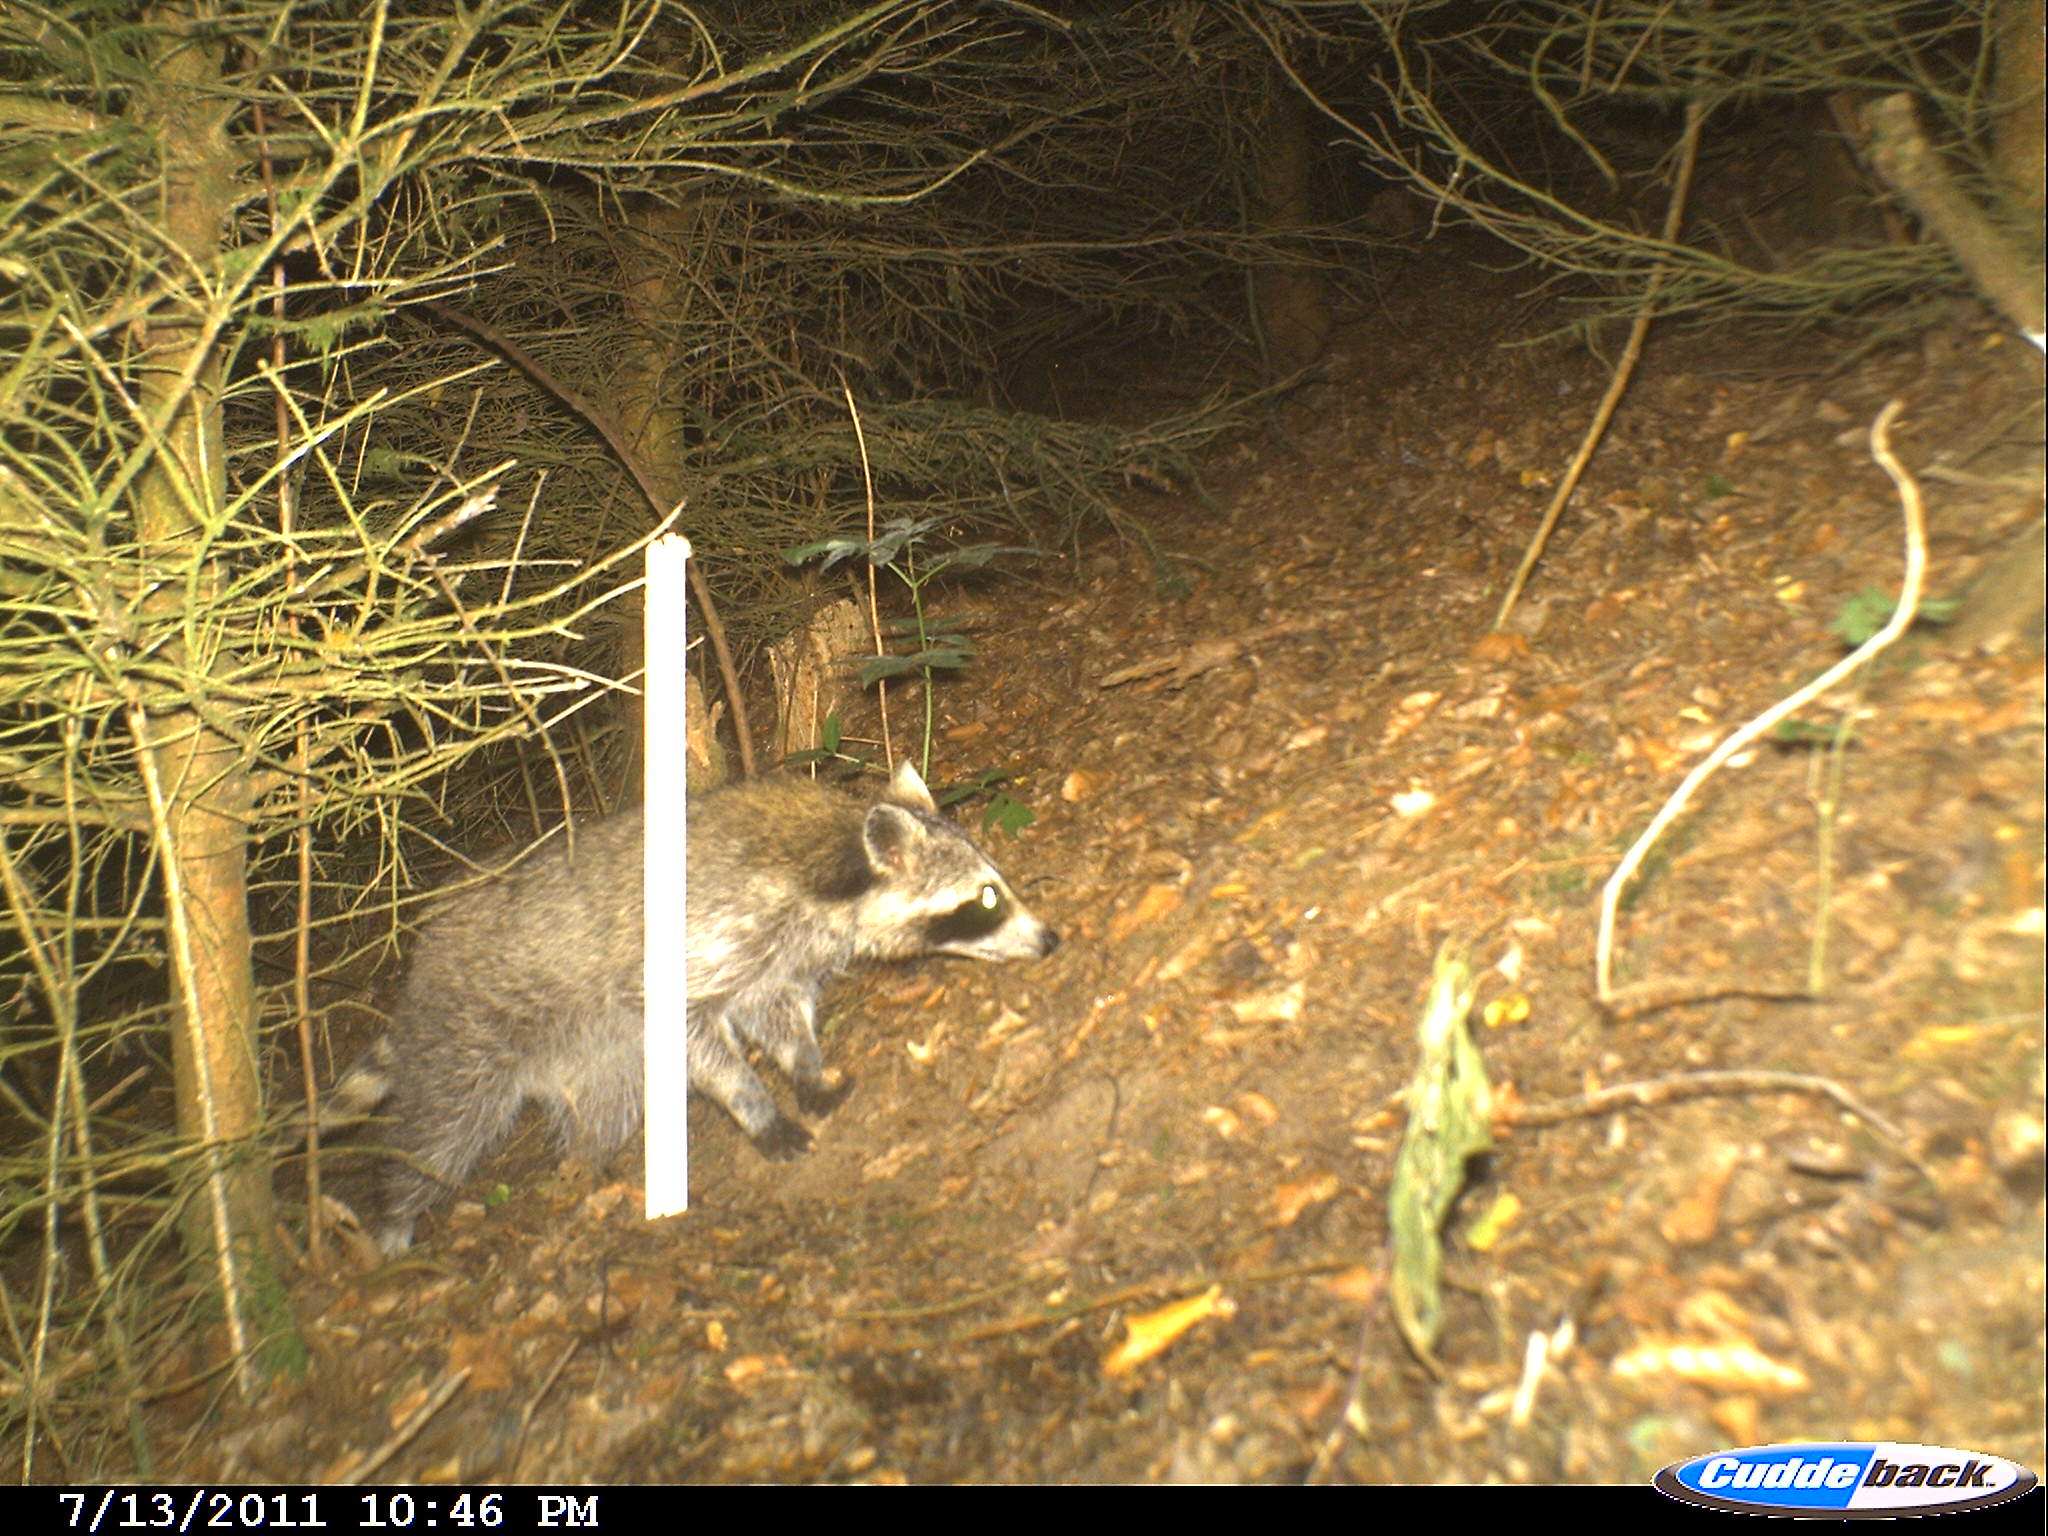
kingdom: Animalia
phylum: Chordata
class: Mammalia
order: Carnivora
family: Procyonidae
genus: Procyon
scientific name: Procyon lotor
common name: Raccoon
